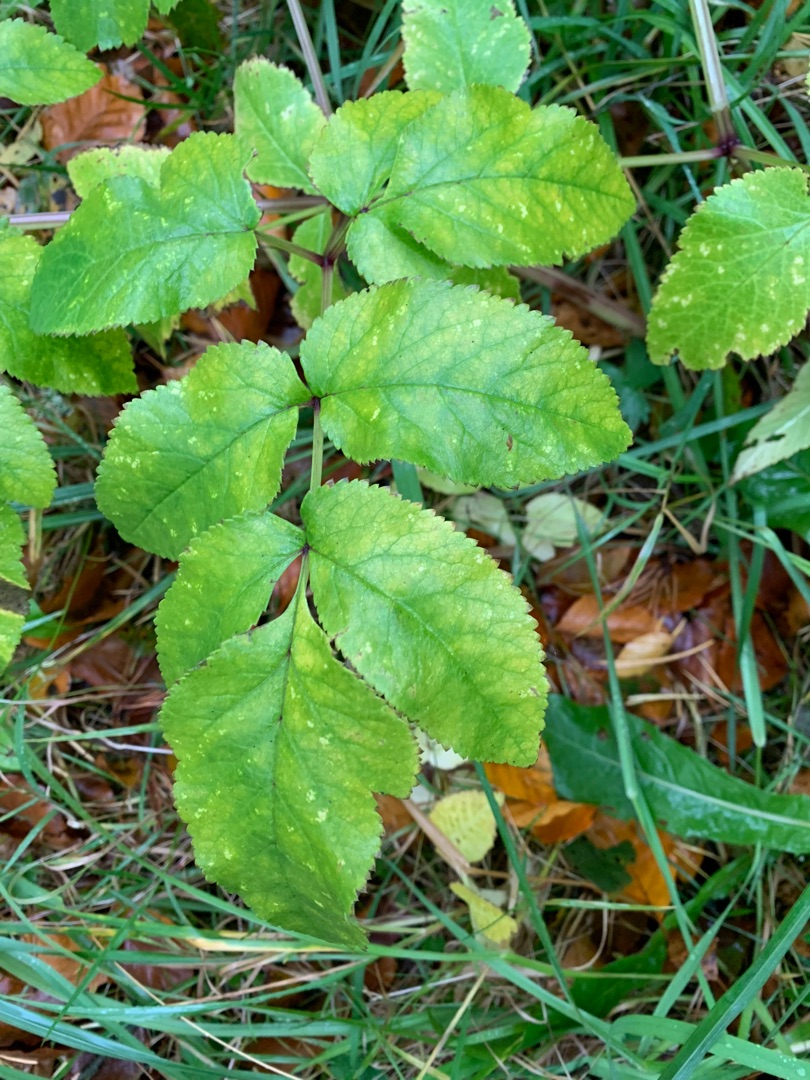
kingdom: Plantae
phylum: Tracheophyta
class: Magnoliopsida
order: Apiales
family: Apiaceae
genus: Angelica
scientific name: Angelica sylvestris
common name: Angelik
